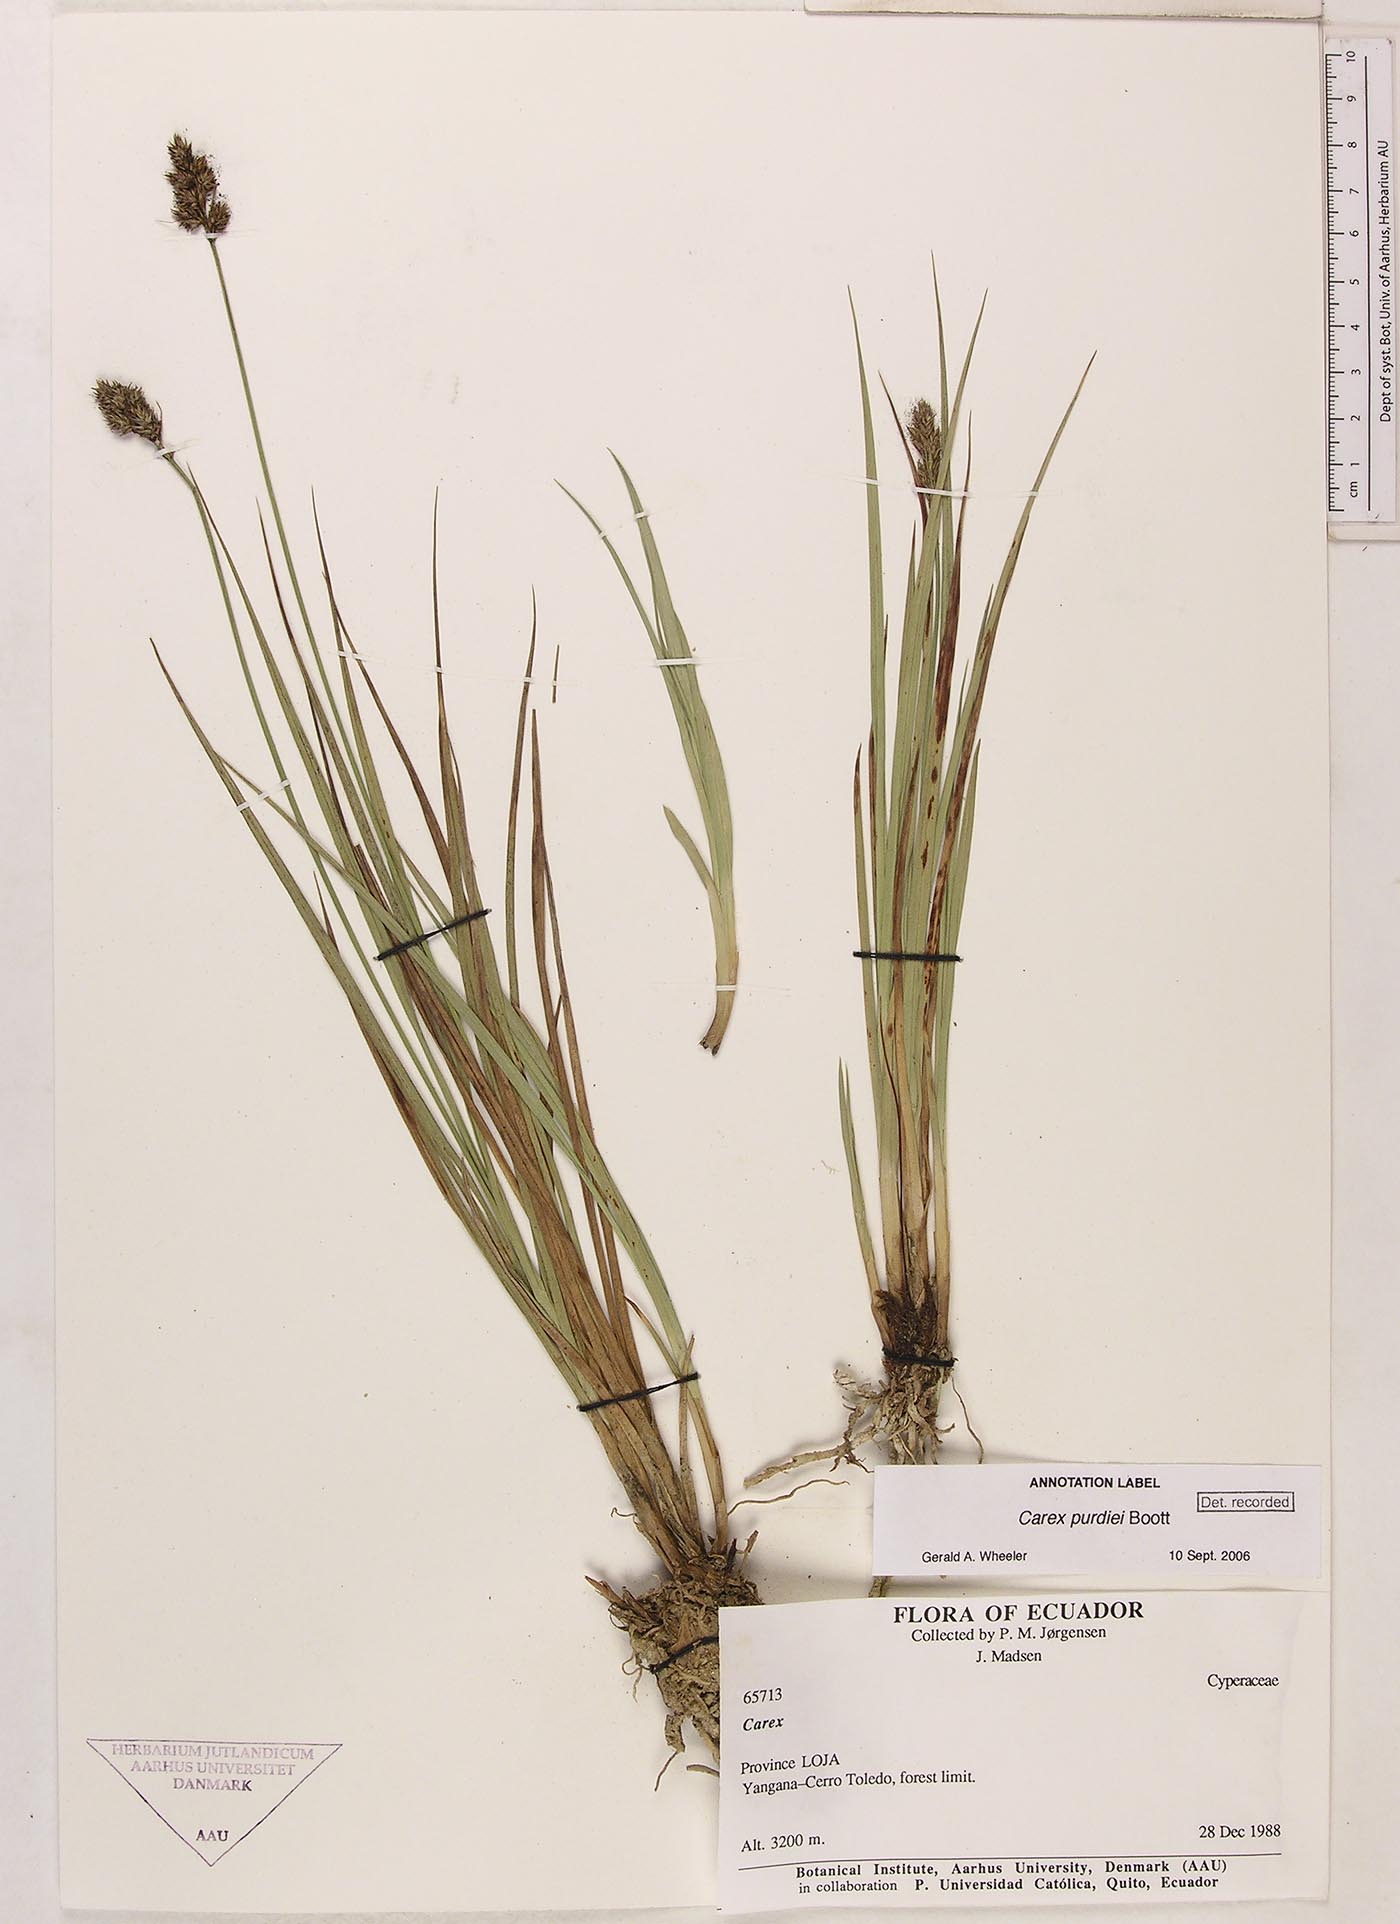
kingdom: Plantae
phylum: Tracheophyta
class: Liliopsida
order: Poales
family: Cyperaceae
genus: Carex
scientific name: Carex purdiei
